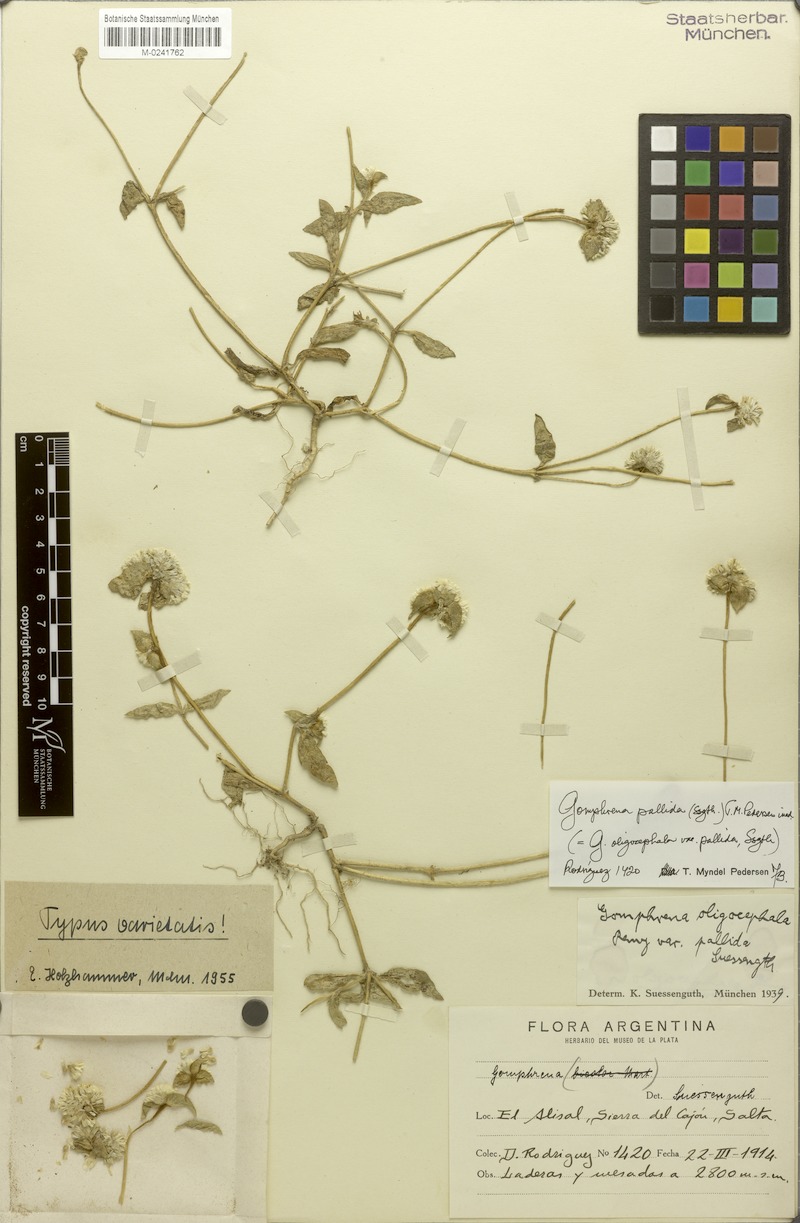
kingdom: Plantae
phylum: Tracheophyta
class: Magnoliopsida
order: Caryophyllales
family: Amaranthaceae
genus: Gomphrena
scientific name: Gomphrena pallida
